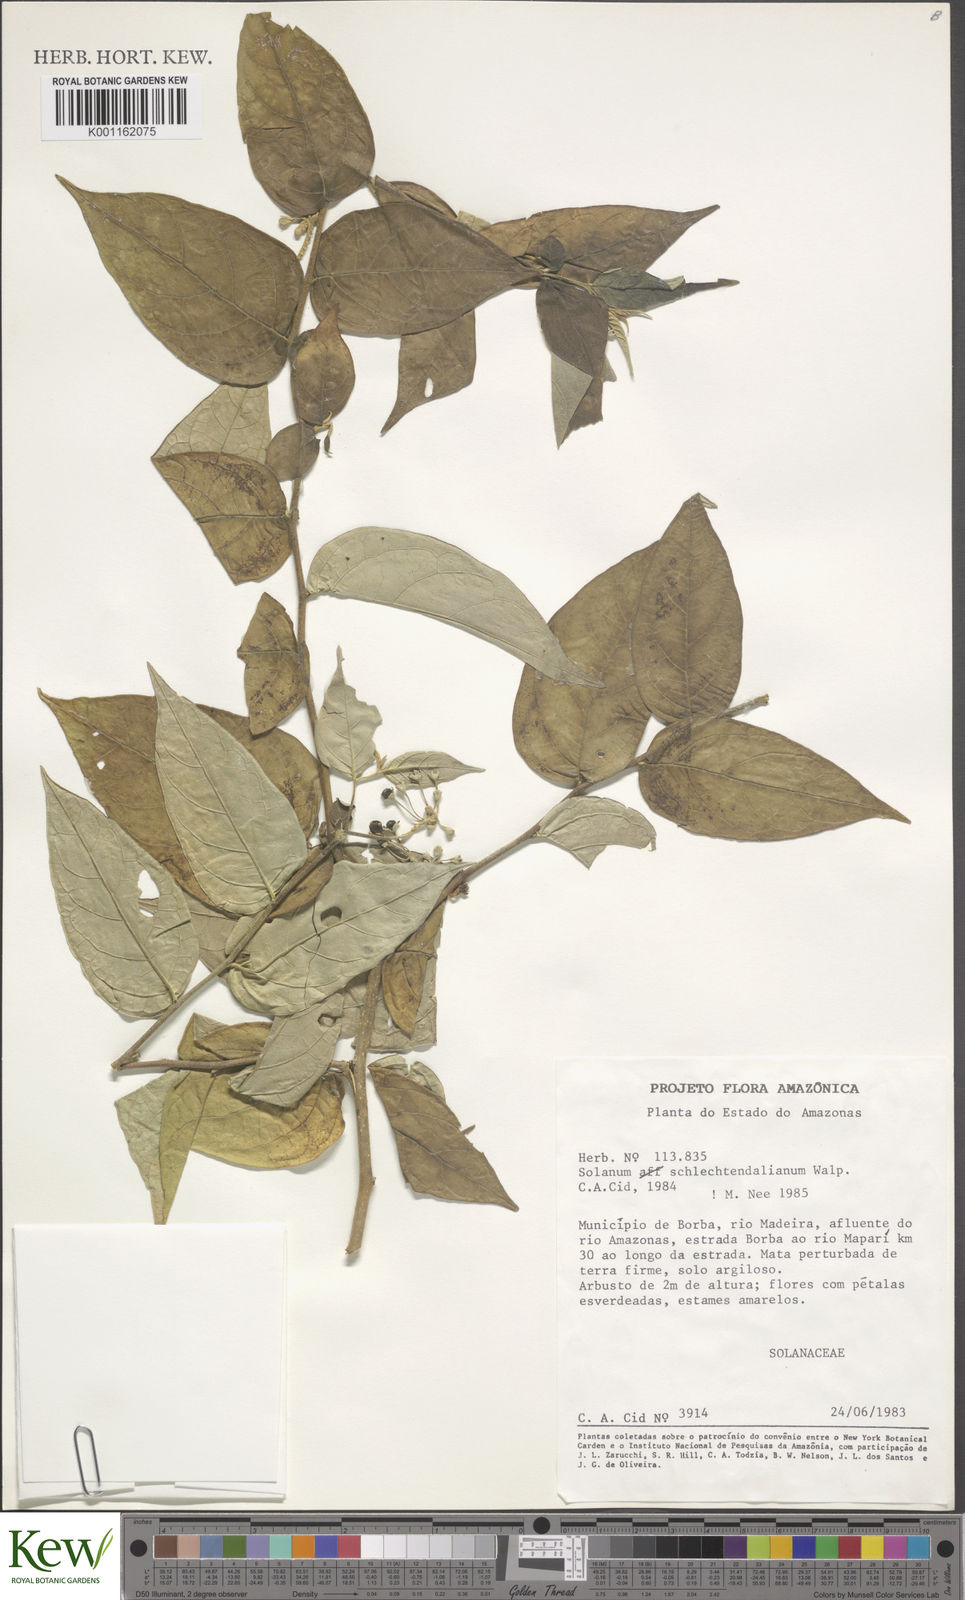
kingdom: Plantae
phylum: Tracheophyta
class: Magnoliopsida
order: Solanales
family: Solanaceae
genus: Solanum
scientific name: Solanum schlechtendalianum
